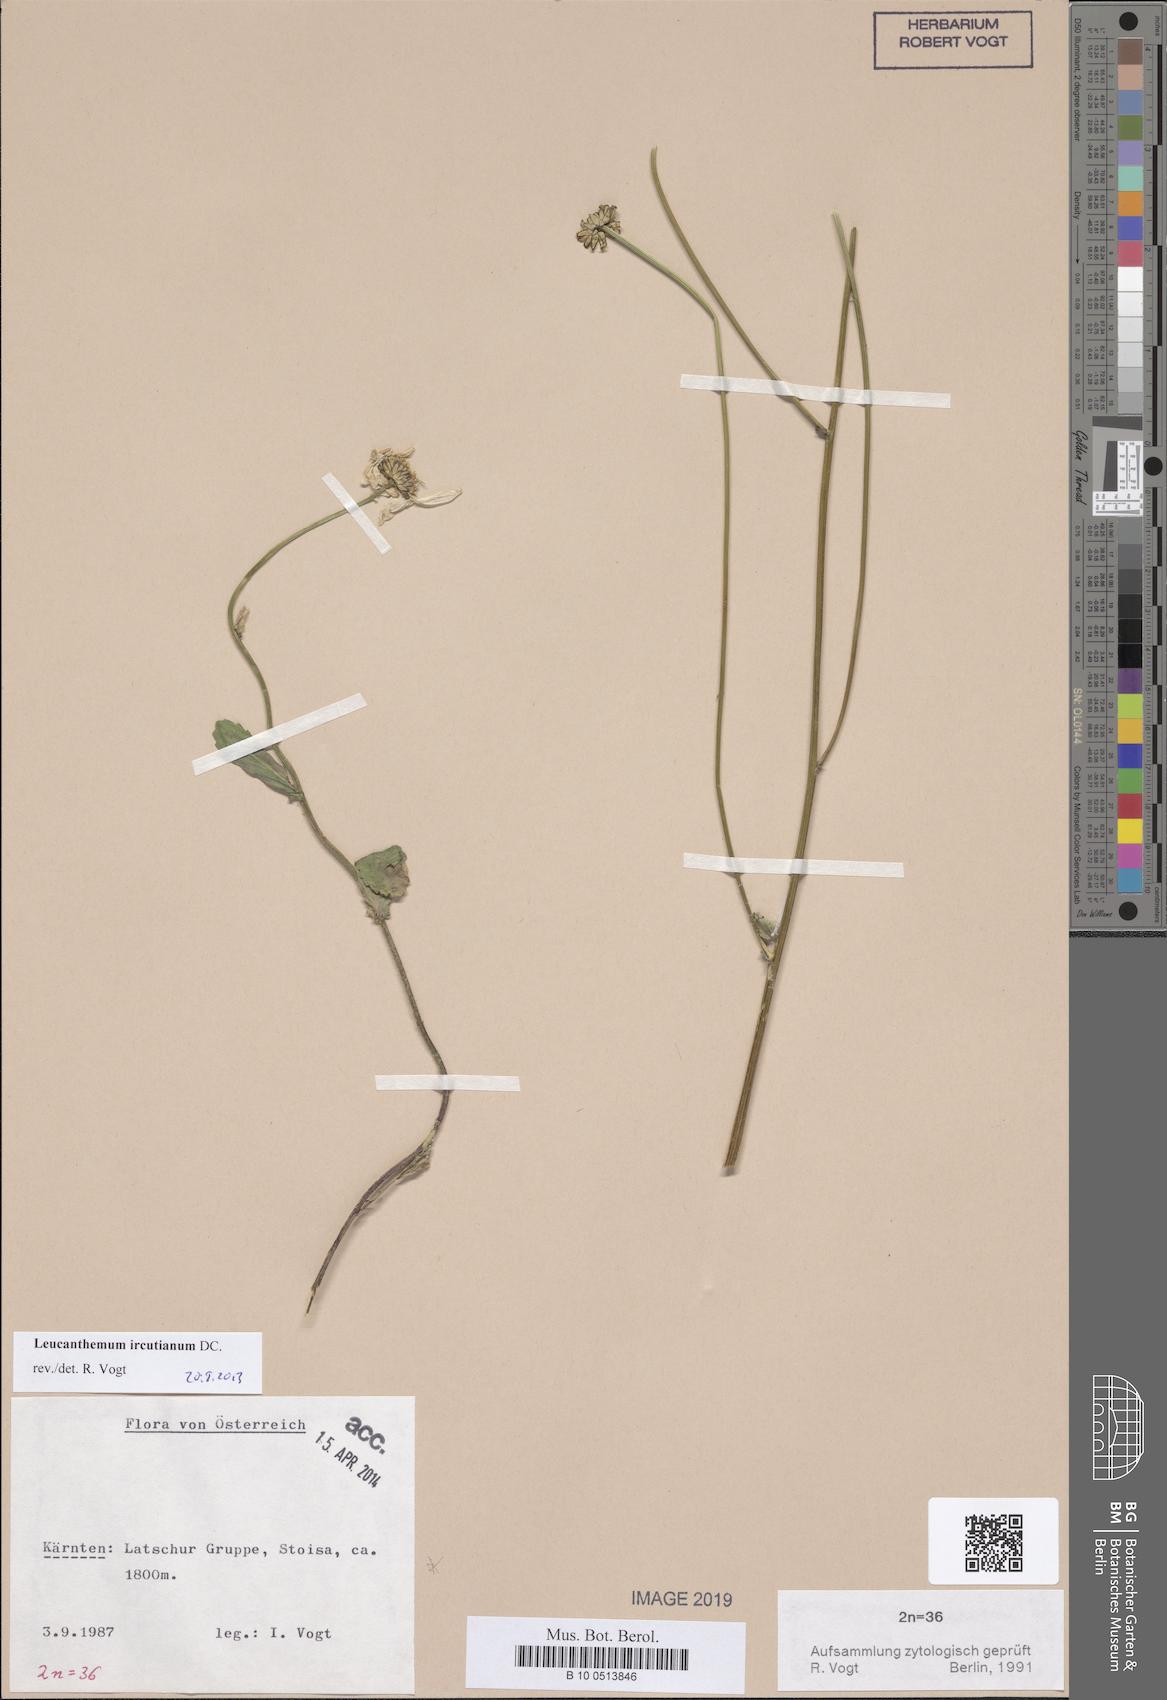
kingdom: Plantae
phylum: Tracheophyta
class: Magnoliopsida
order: Asterales
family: Asteraceae
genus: Leucanthemum
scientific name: Leucanthemum ircutianum
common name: Daisy
